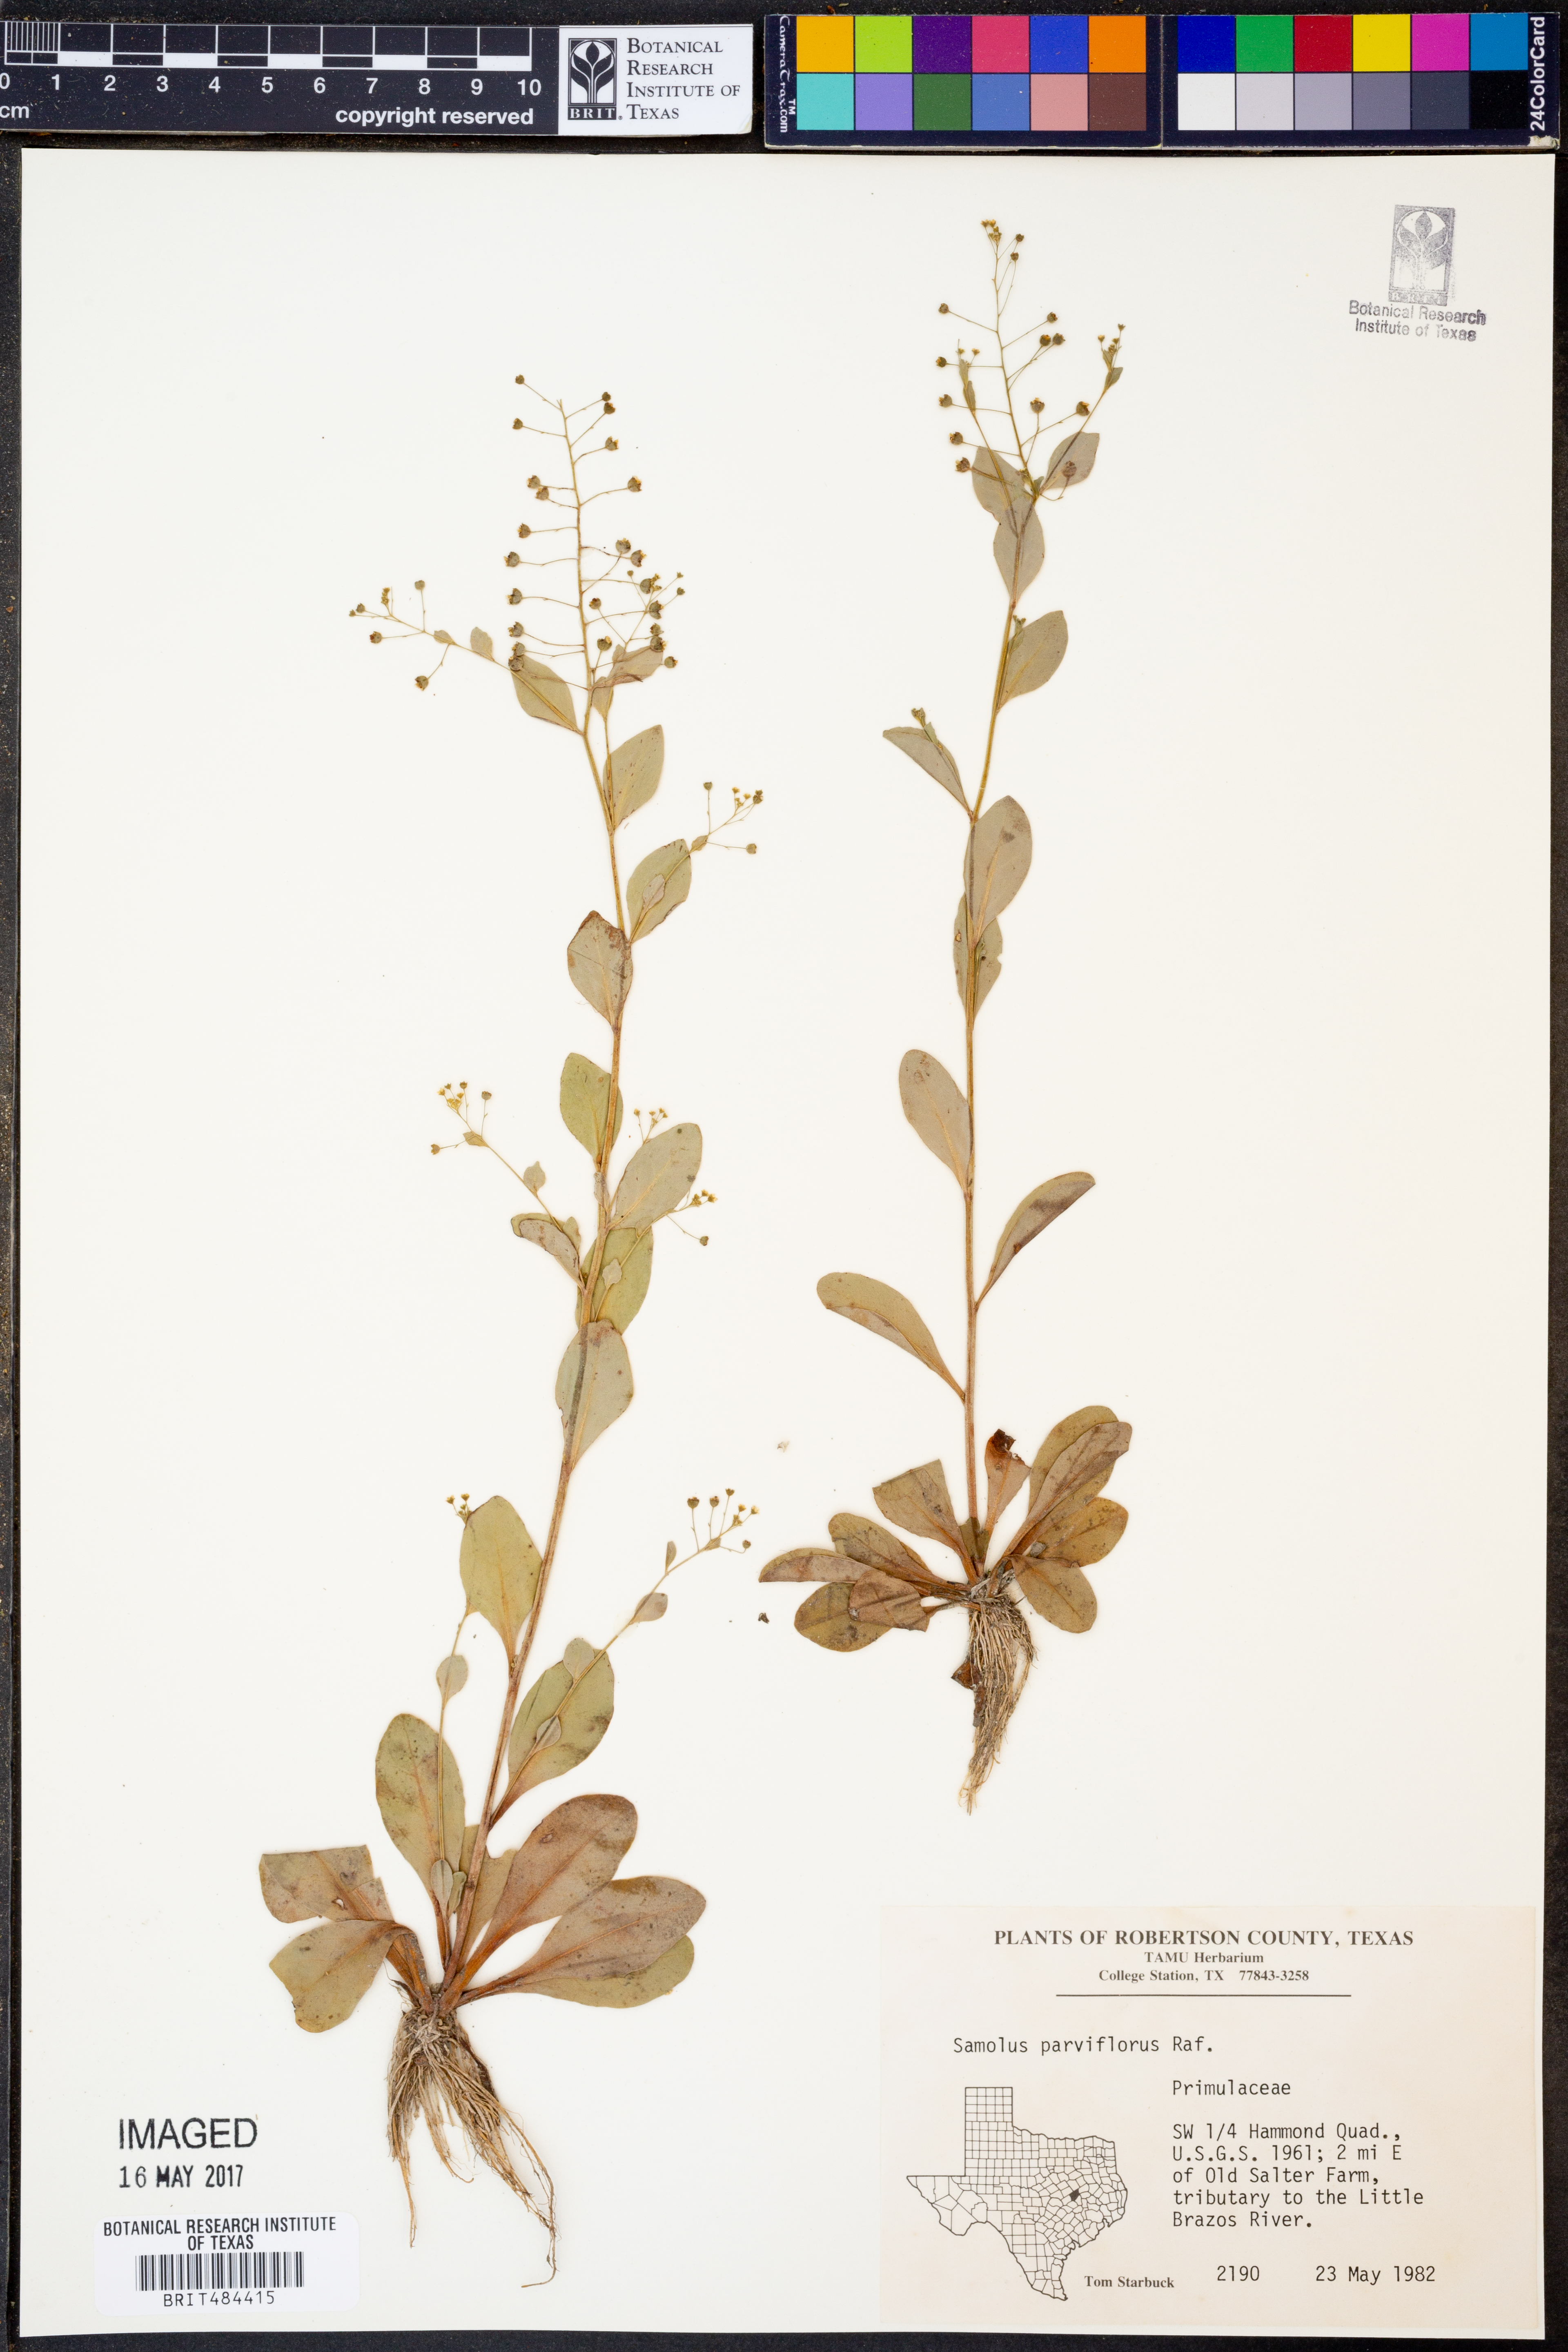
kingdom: Plantae
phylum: Tracheophyta
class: Magnoliopsida
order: Ericales
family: Primulaceae
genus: Samolus
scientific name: Samolus parviflorus
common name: False water pimpernel
